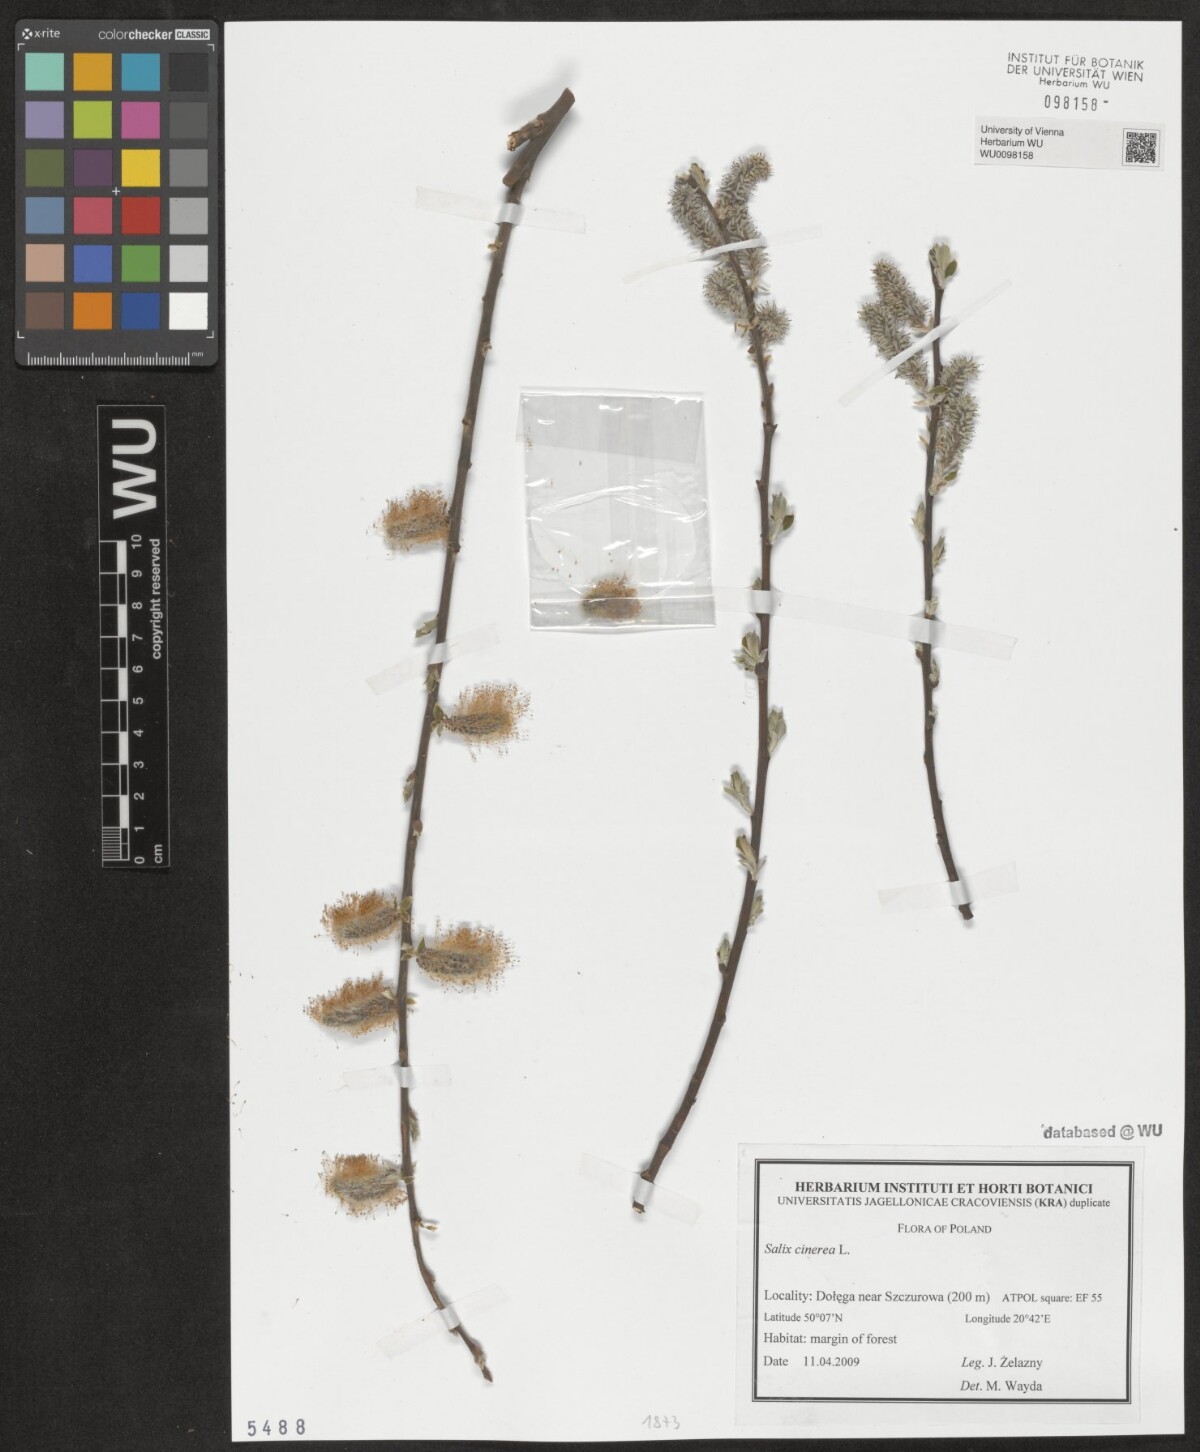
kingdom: Plantae
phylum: Tracheophyta
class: Magnoliopsida
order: Malpighiales
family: Salicaceae
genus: Salix
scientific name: Salix cinerea
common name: Common sallow
